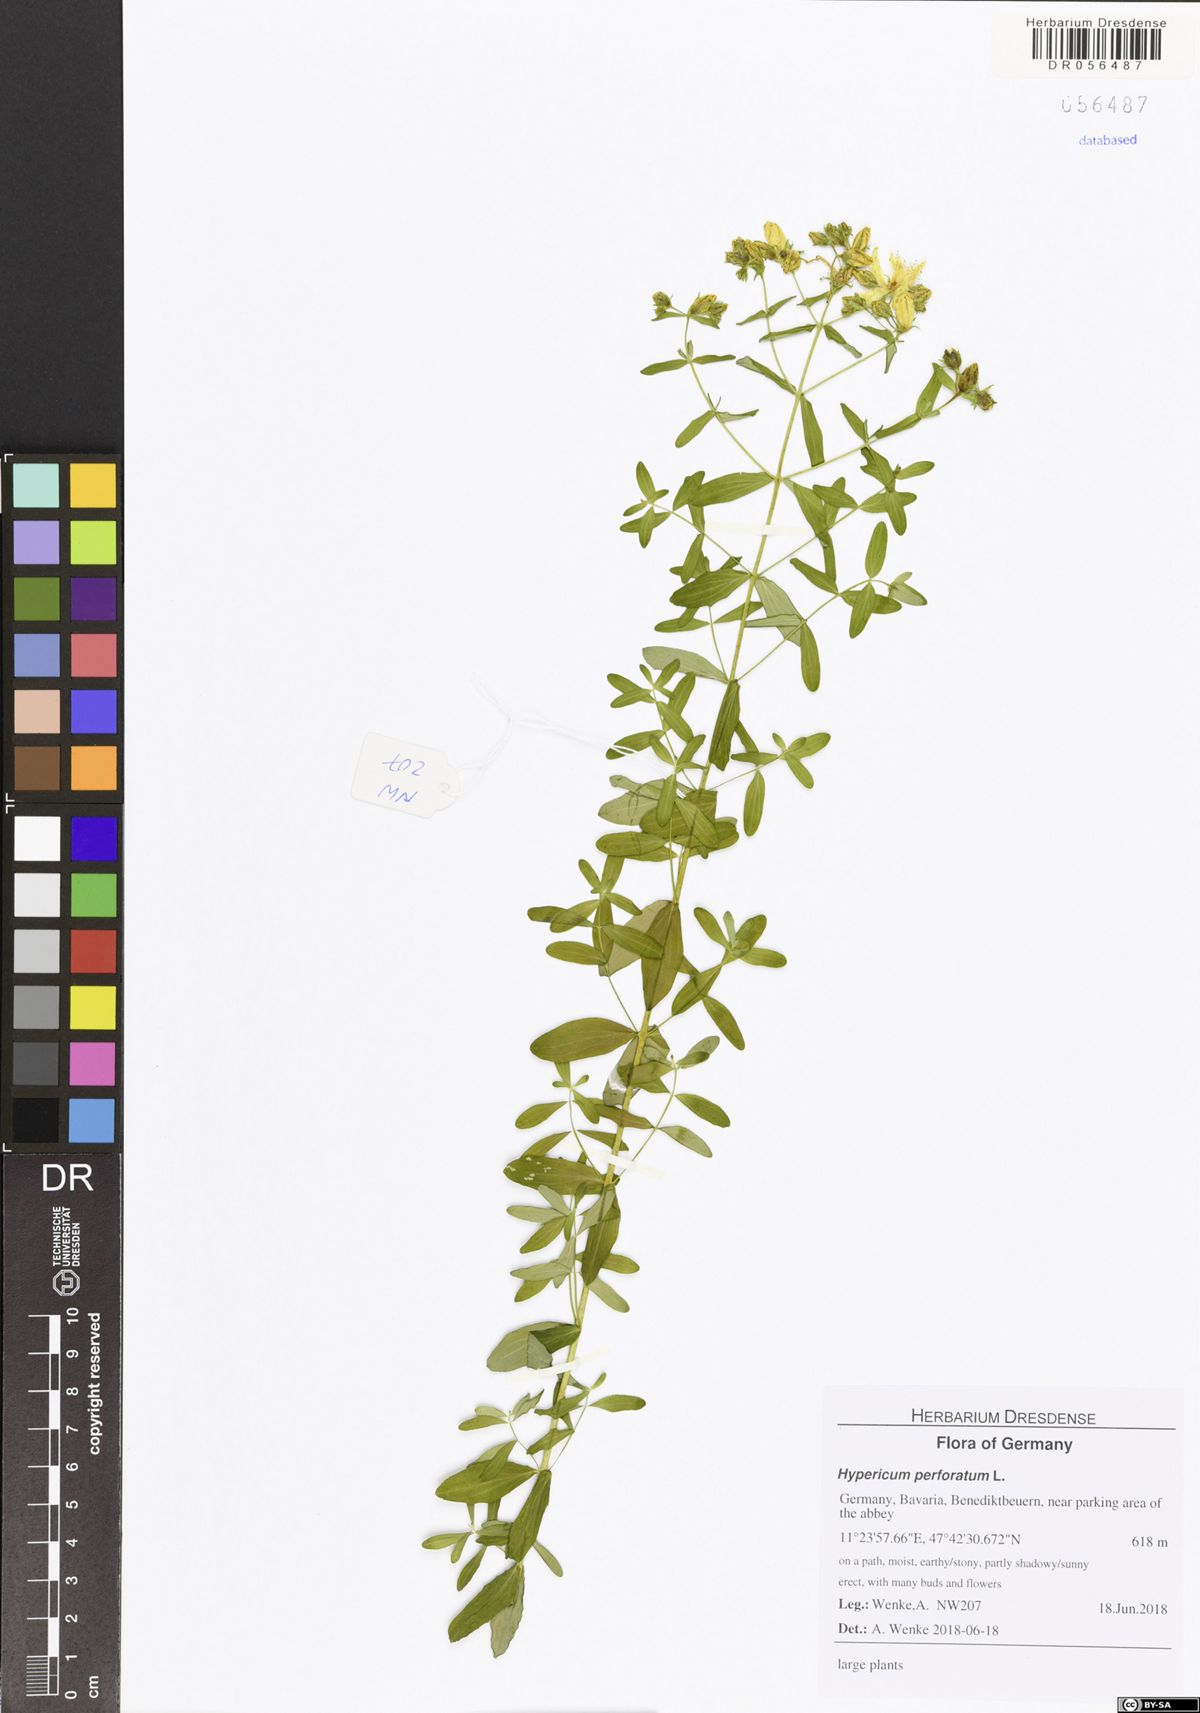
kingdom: Plantae
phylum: Tracheophyta
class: Magnoliopsida
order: Malpighiales
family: Hypericaceae
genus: Hypericum
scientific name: Hypericum perforatum
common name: Common st. johnswort
